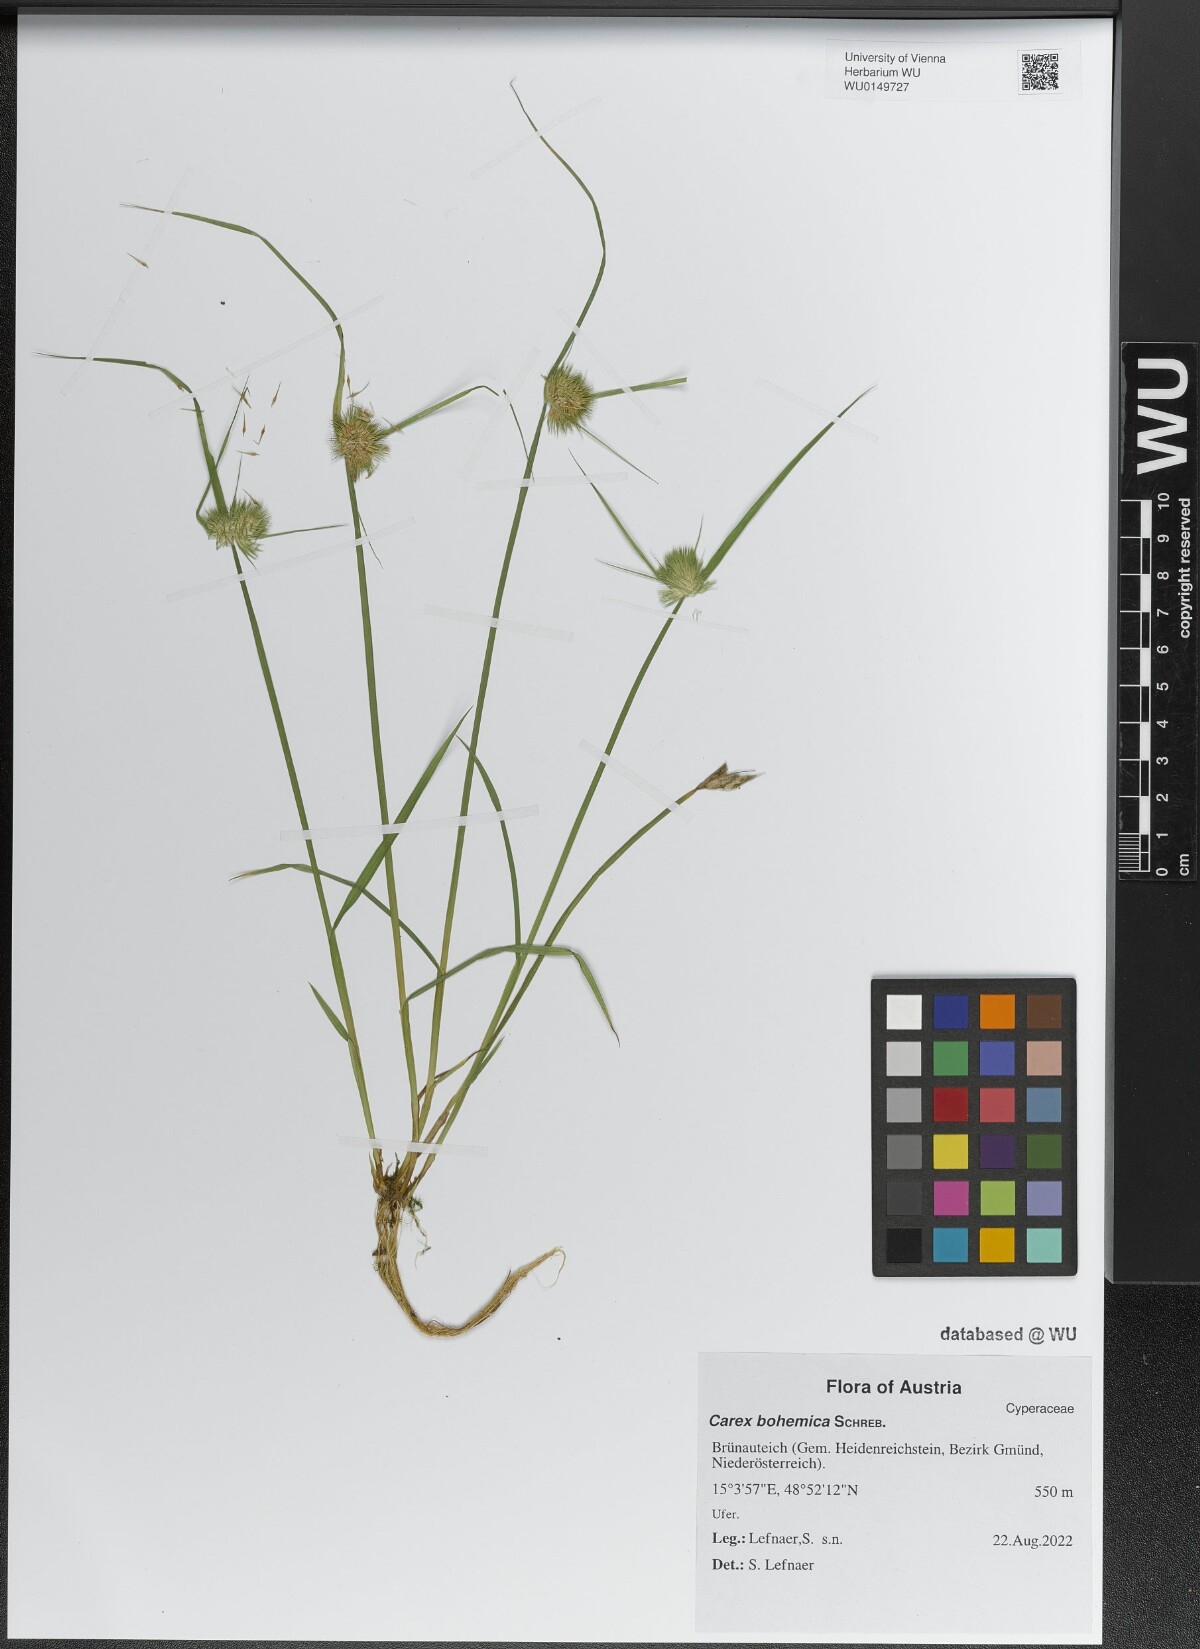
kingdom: Plantae
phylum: Tracheophyta
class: Liliopsida
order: Poales
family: Cyperaceae
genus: Carex
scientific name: Carex bohemica
